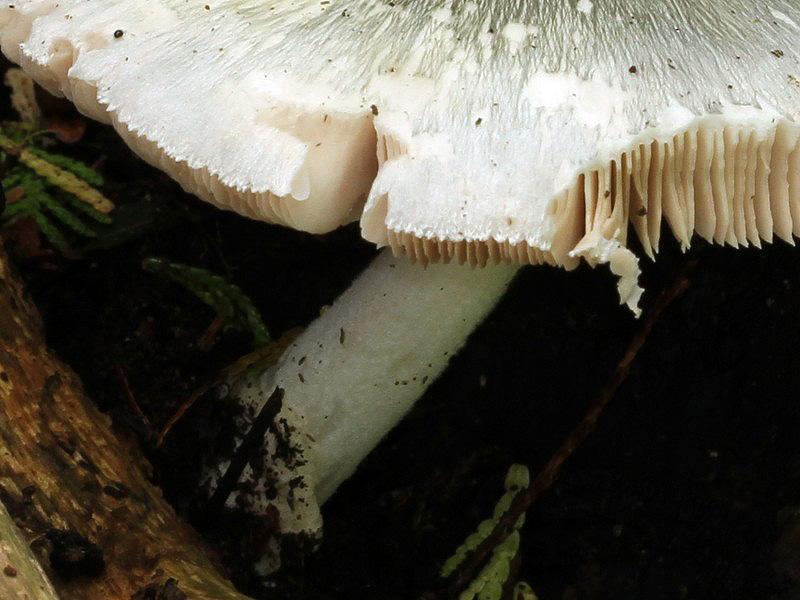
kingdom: Fungi
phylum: Basidiomycota
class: Agaricomycetes
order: Agaricales
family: Pluteaceae
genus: Volvariella
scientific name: Volvariella caesiotincta
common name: ved-posesvamp
